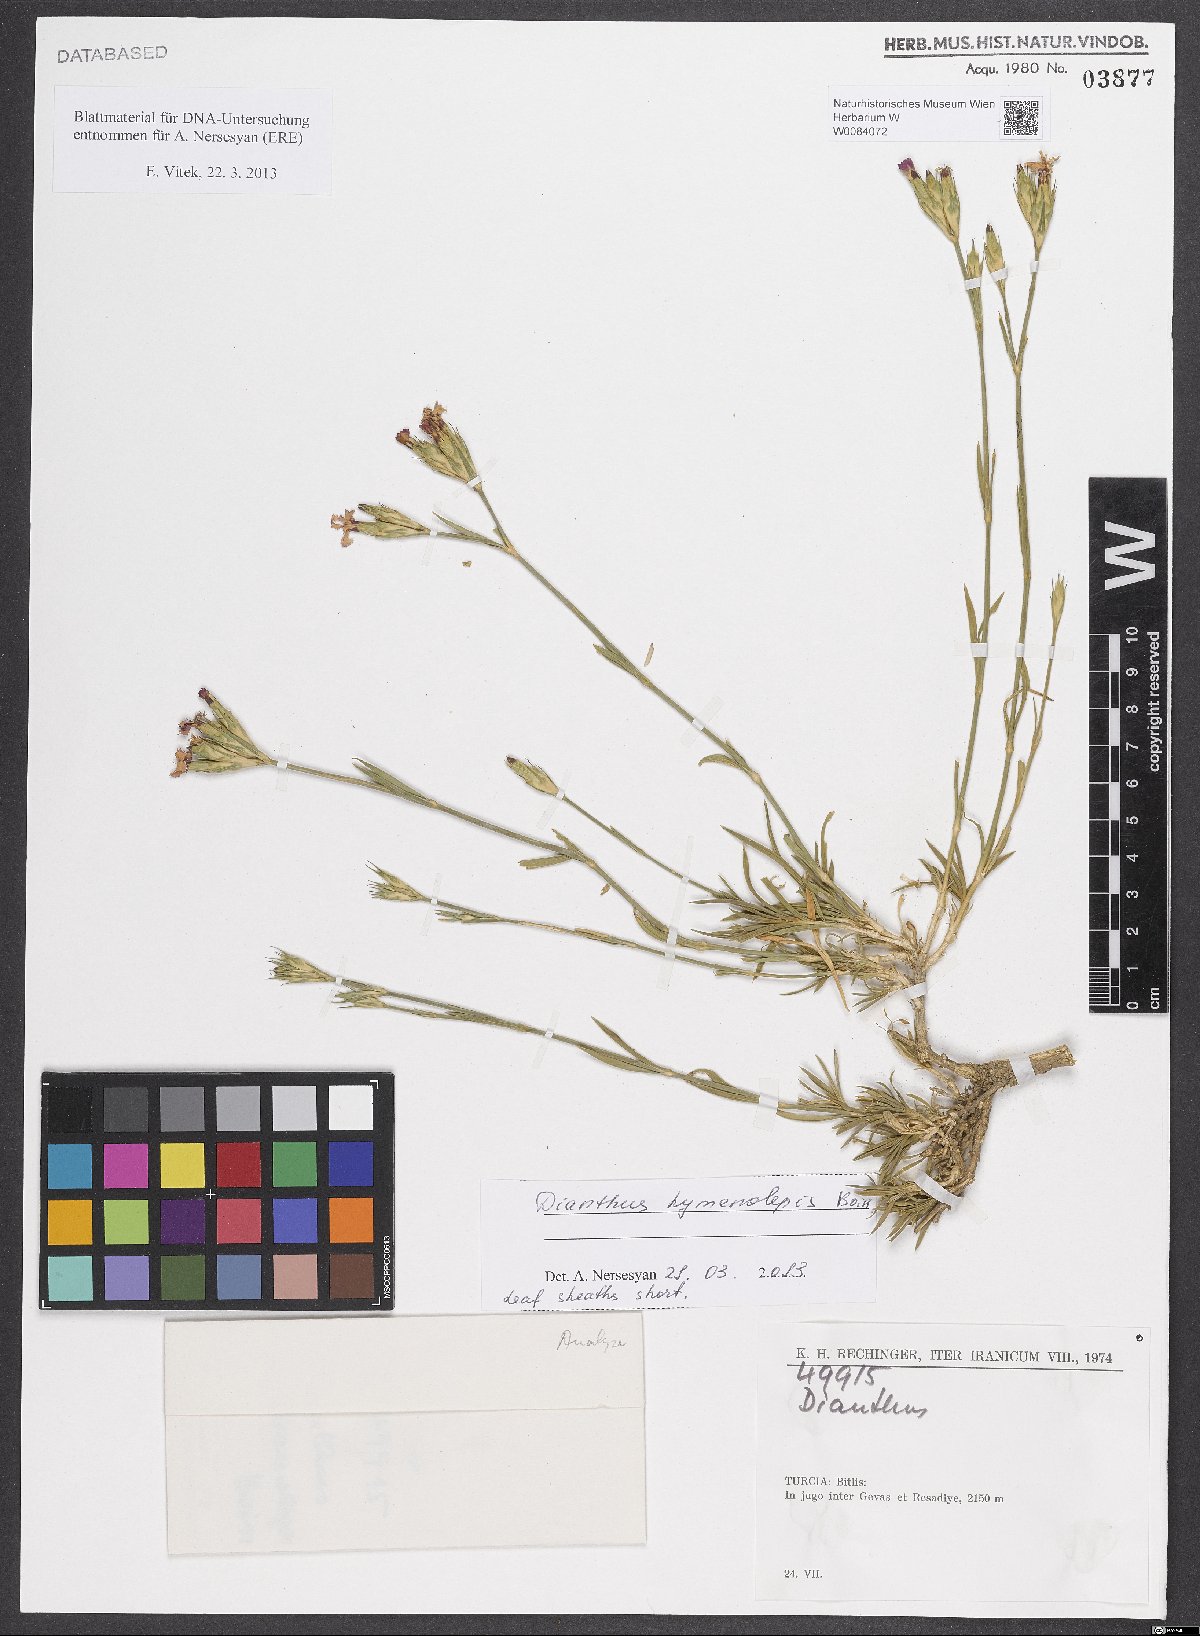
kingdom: Plantae
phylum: Tracheophyta
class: Magnoliopsida
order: Caryophyllales
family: Caryophyllaceae
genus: Dianthus
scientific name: Dianthus hymenolepis
